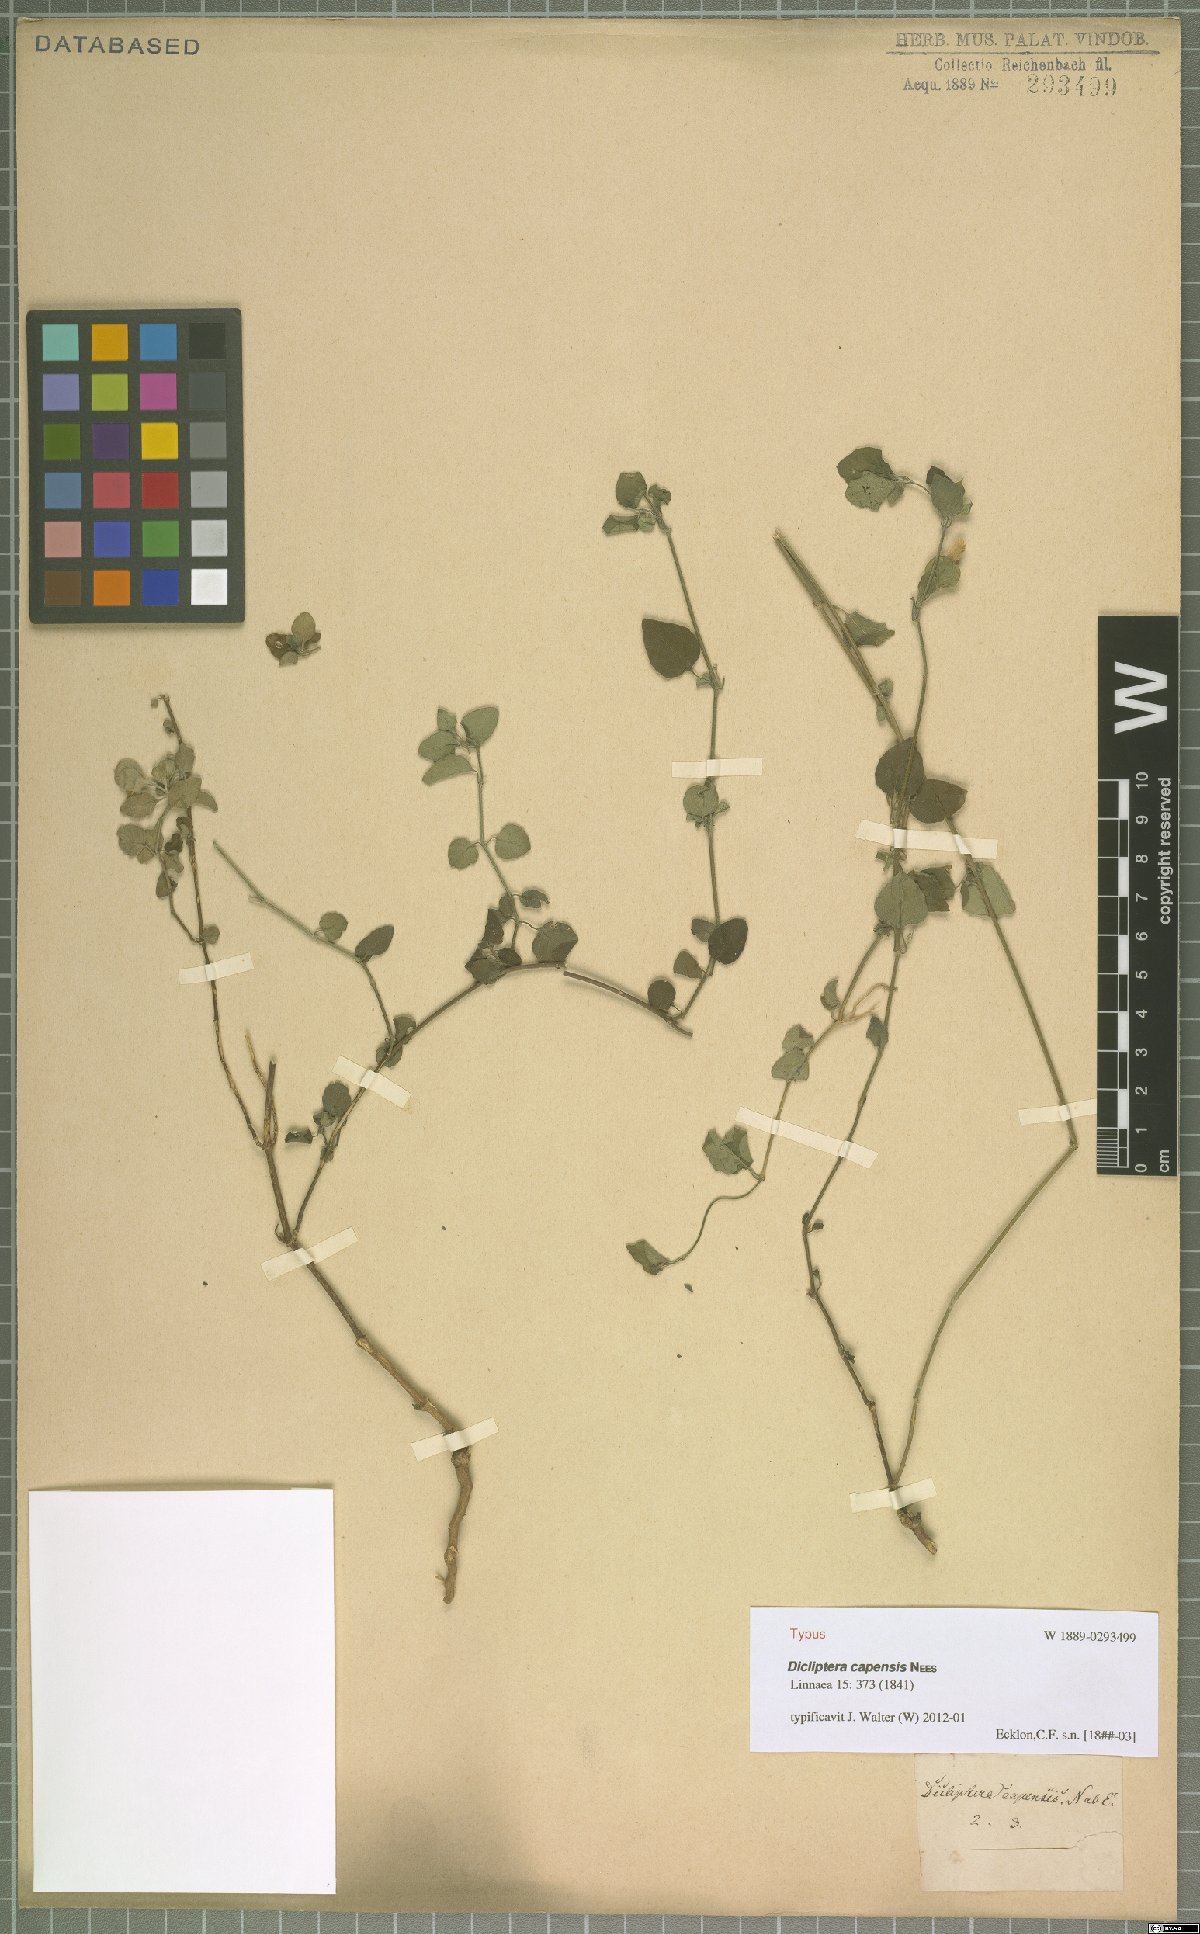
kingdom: Plantae
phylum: Tracheophyta
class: Magnoliopsida
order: Lamiales
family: Acanthaceae
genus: Dicliptera
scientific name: Dicliptera capensis
